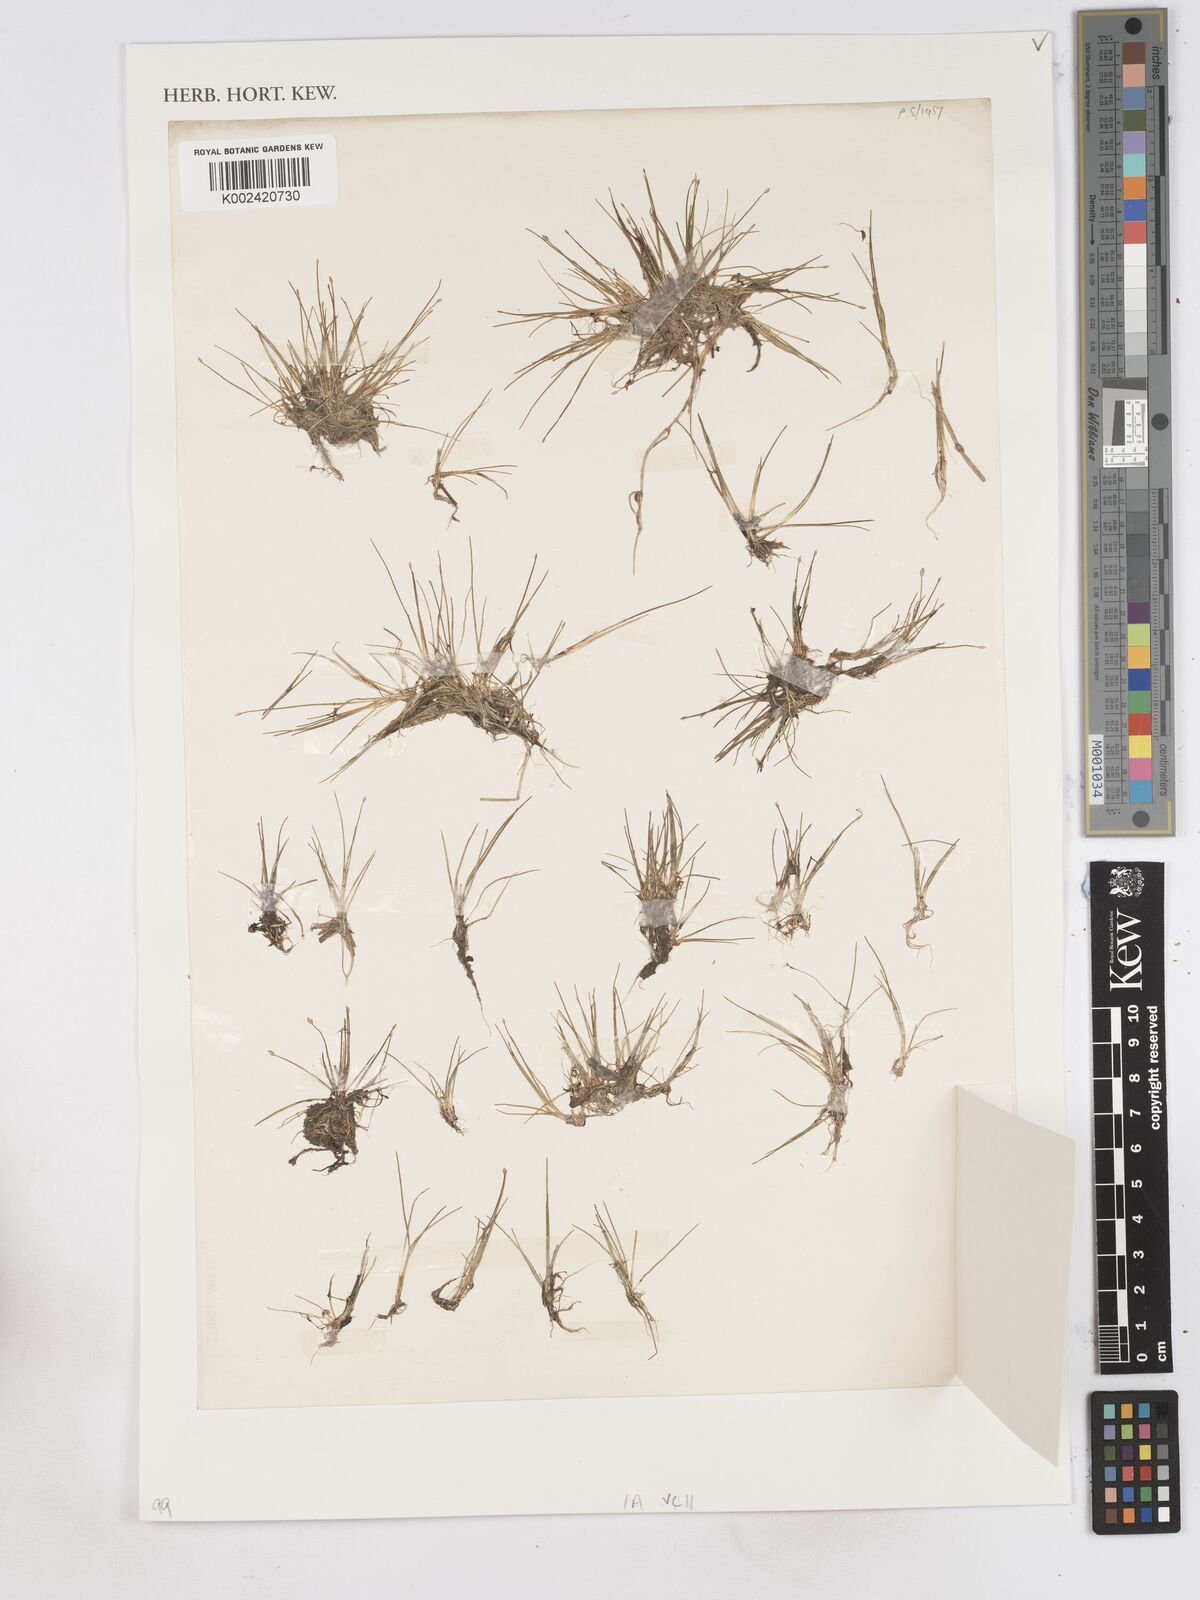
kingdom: Plantae
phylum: Tracheophyta
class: Liliopsida
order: Poales
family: Cyperaceae
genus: Eleocharis
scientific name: Eleocharis parvula
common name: Dwarf spike-rush
